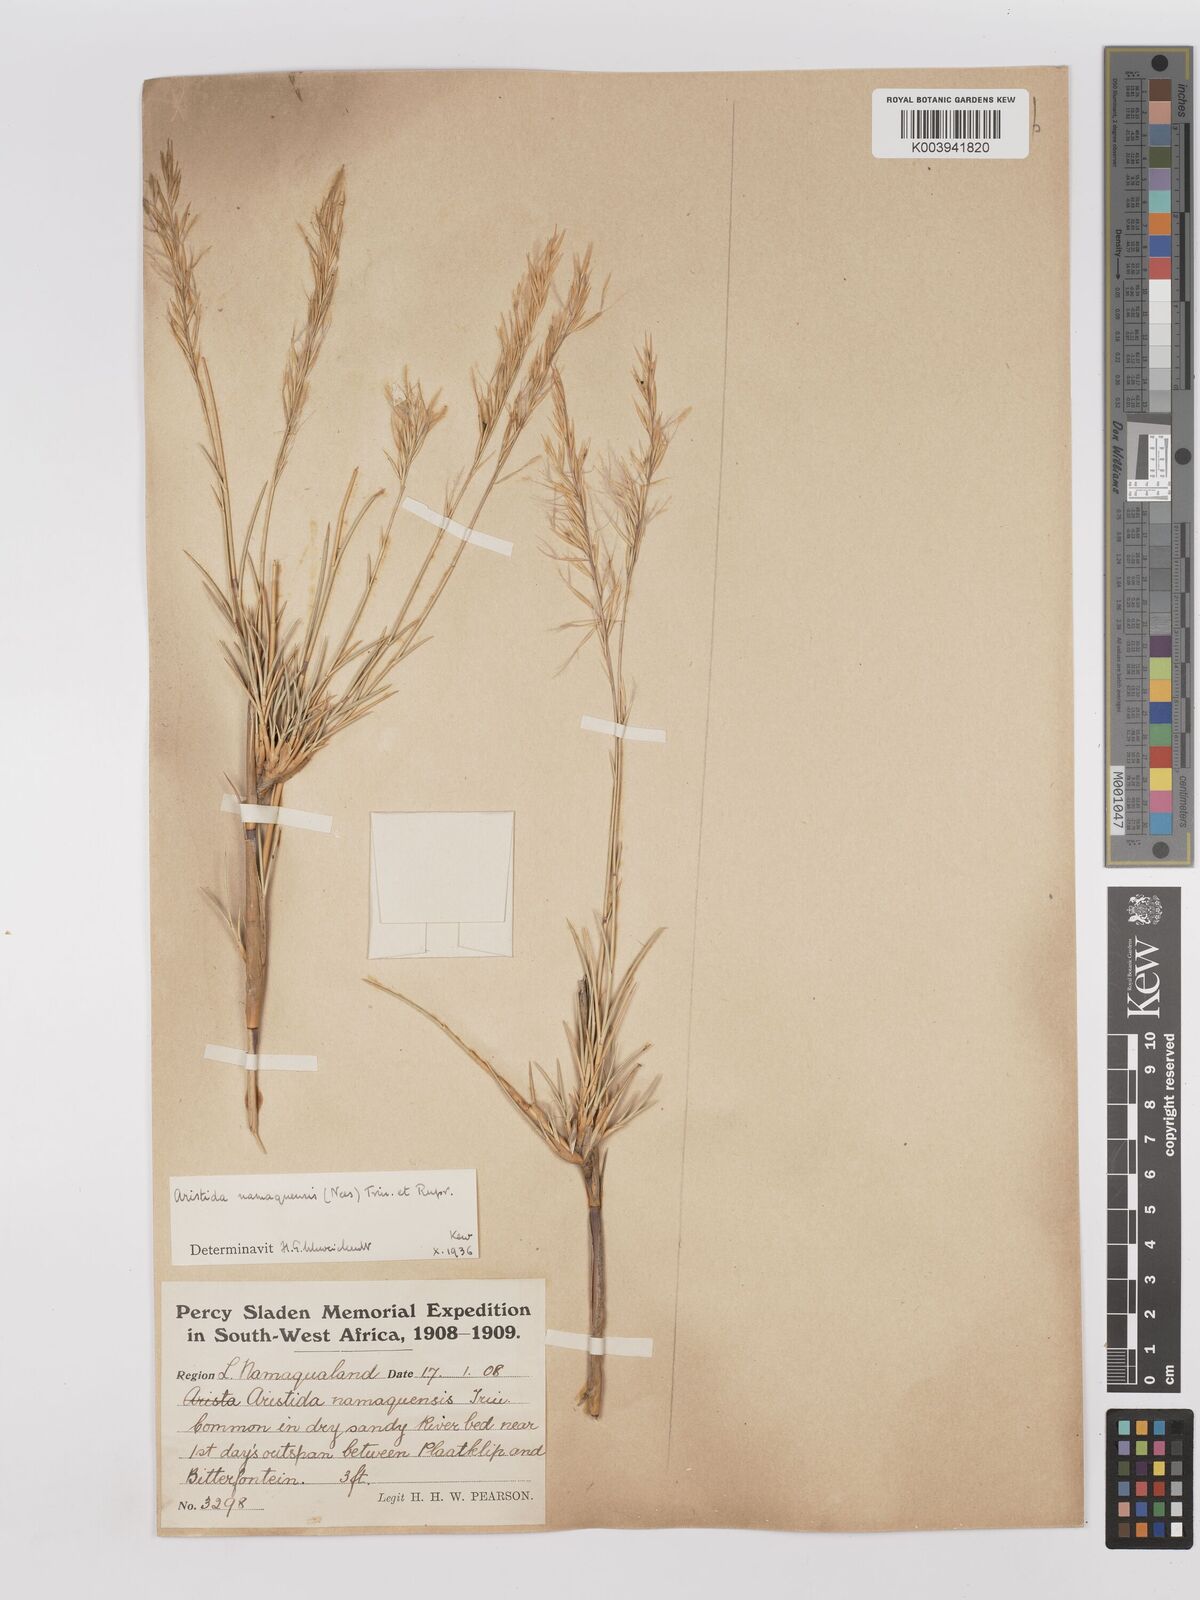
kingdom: Plantae
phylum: Tracheophyta
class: Liliopsida
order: Poales
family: Poaceae
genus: Stipagrostis
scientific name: Stipagrostis namaquensis
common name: River bushman grass
